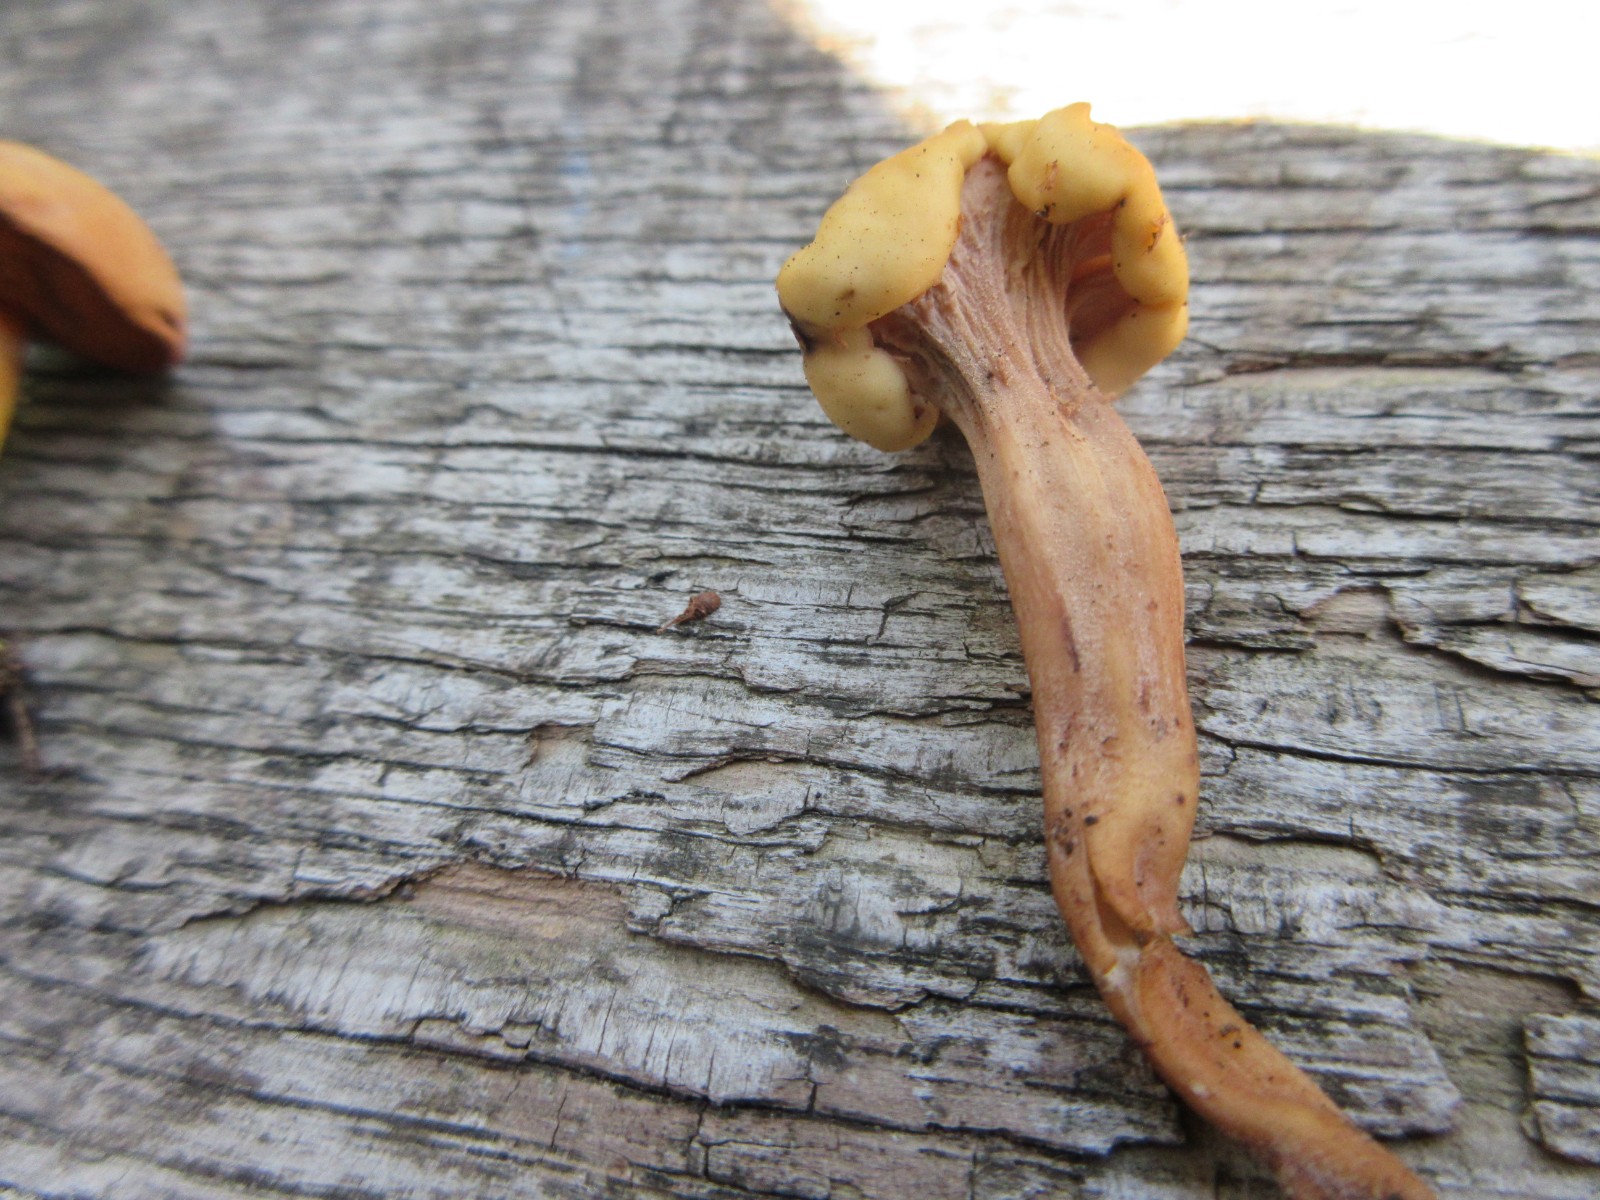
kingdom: Fungi
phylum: Ascomycota
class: Leotiomycetes
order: Rhytismatales
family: Cudoniaceae
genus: Cudonia
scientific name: Cudonia circinans
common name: hekserings-hjelmmorkel
